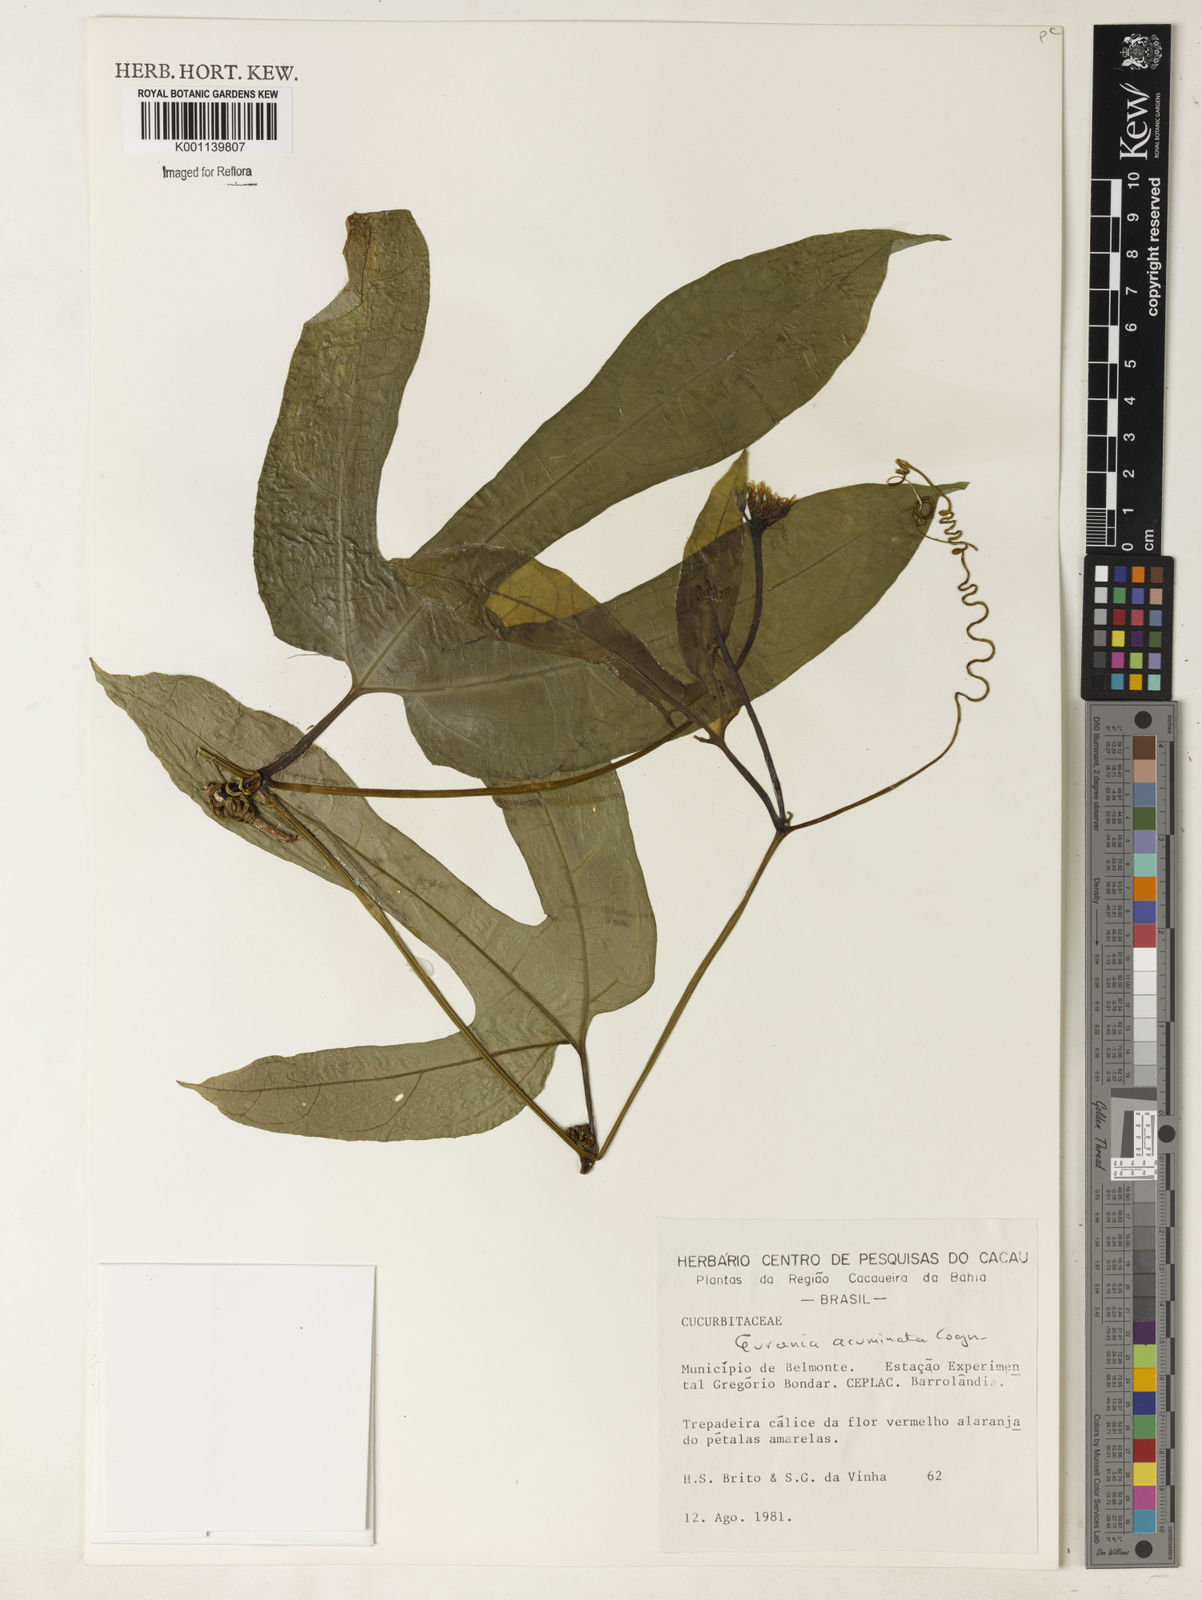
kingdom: Plantae
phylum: Tracheophyta
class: Magnoliopsida
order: Cucurbitales
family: Cucurbitaceae
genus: Gurania
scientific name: Gurania acuminata
